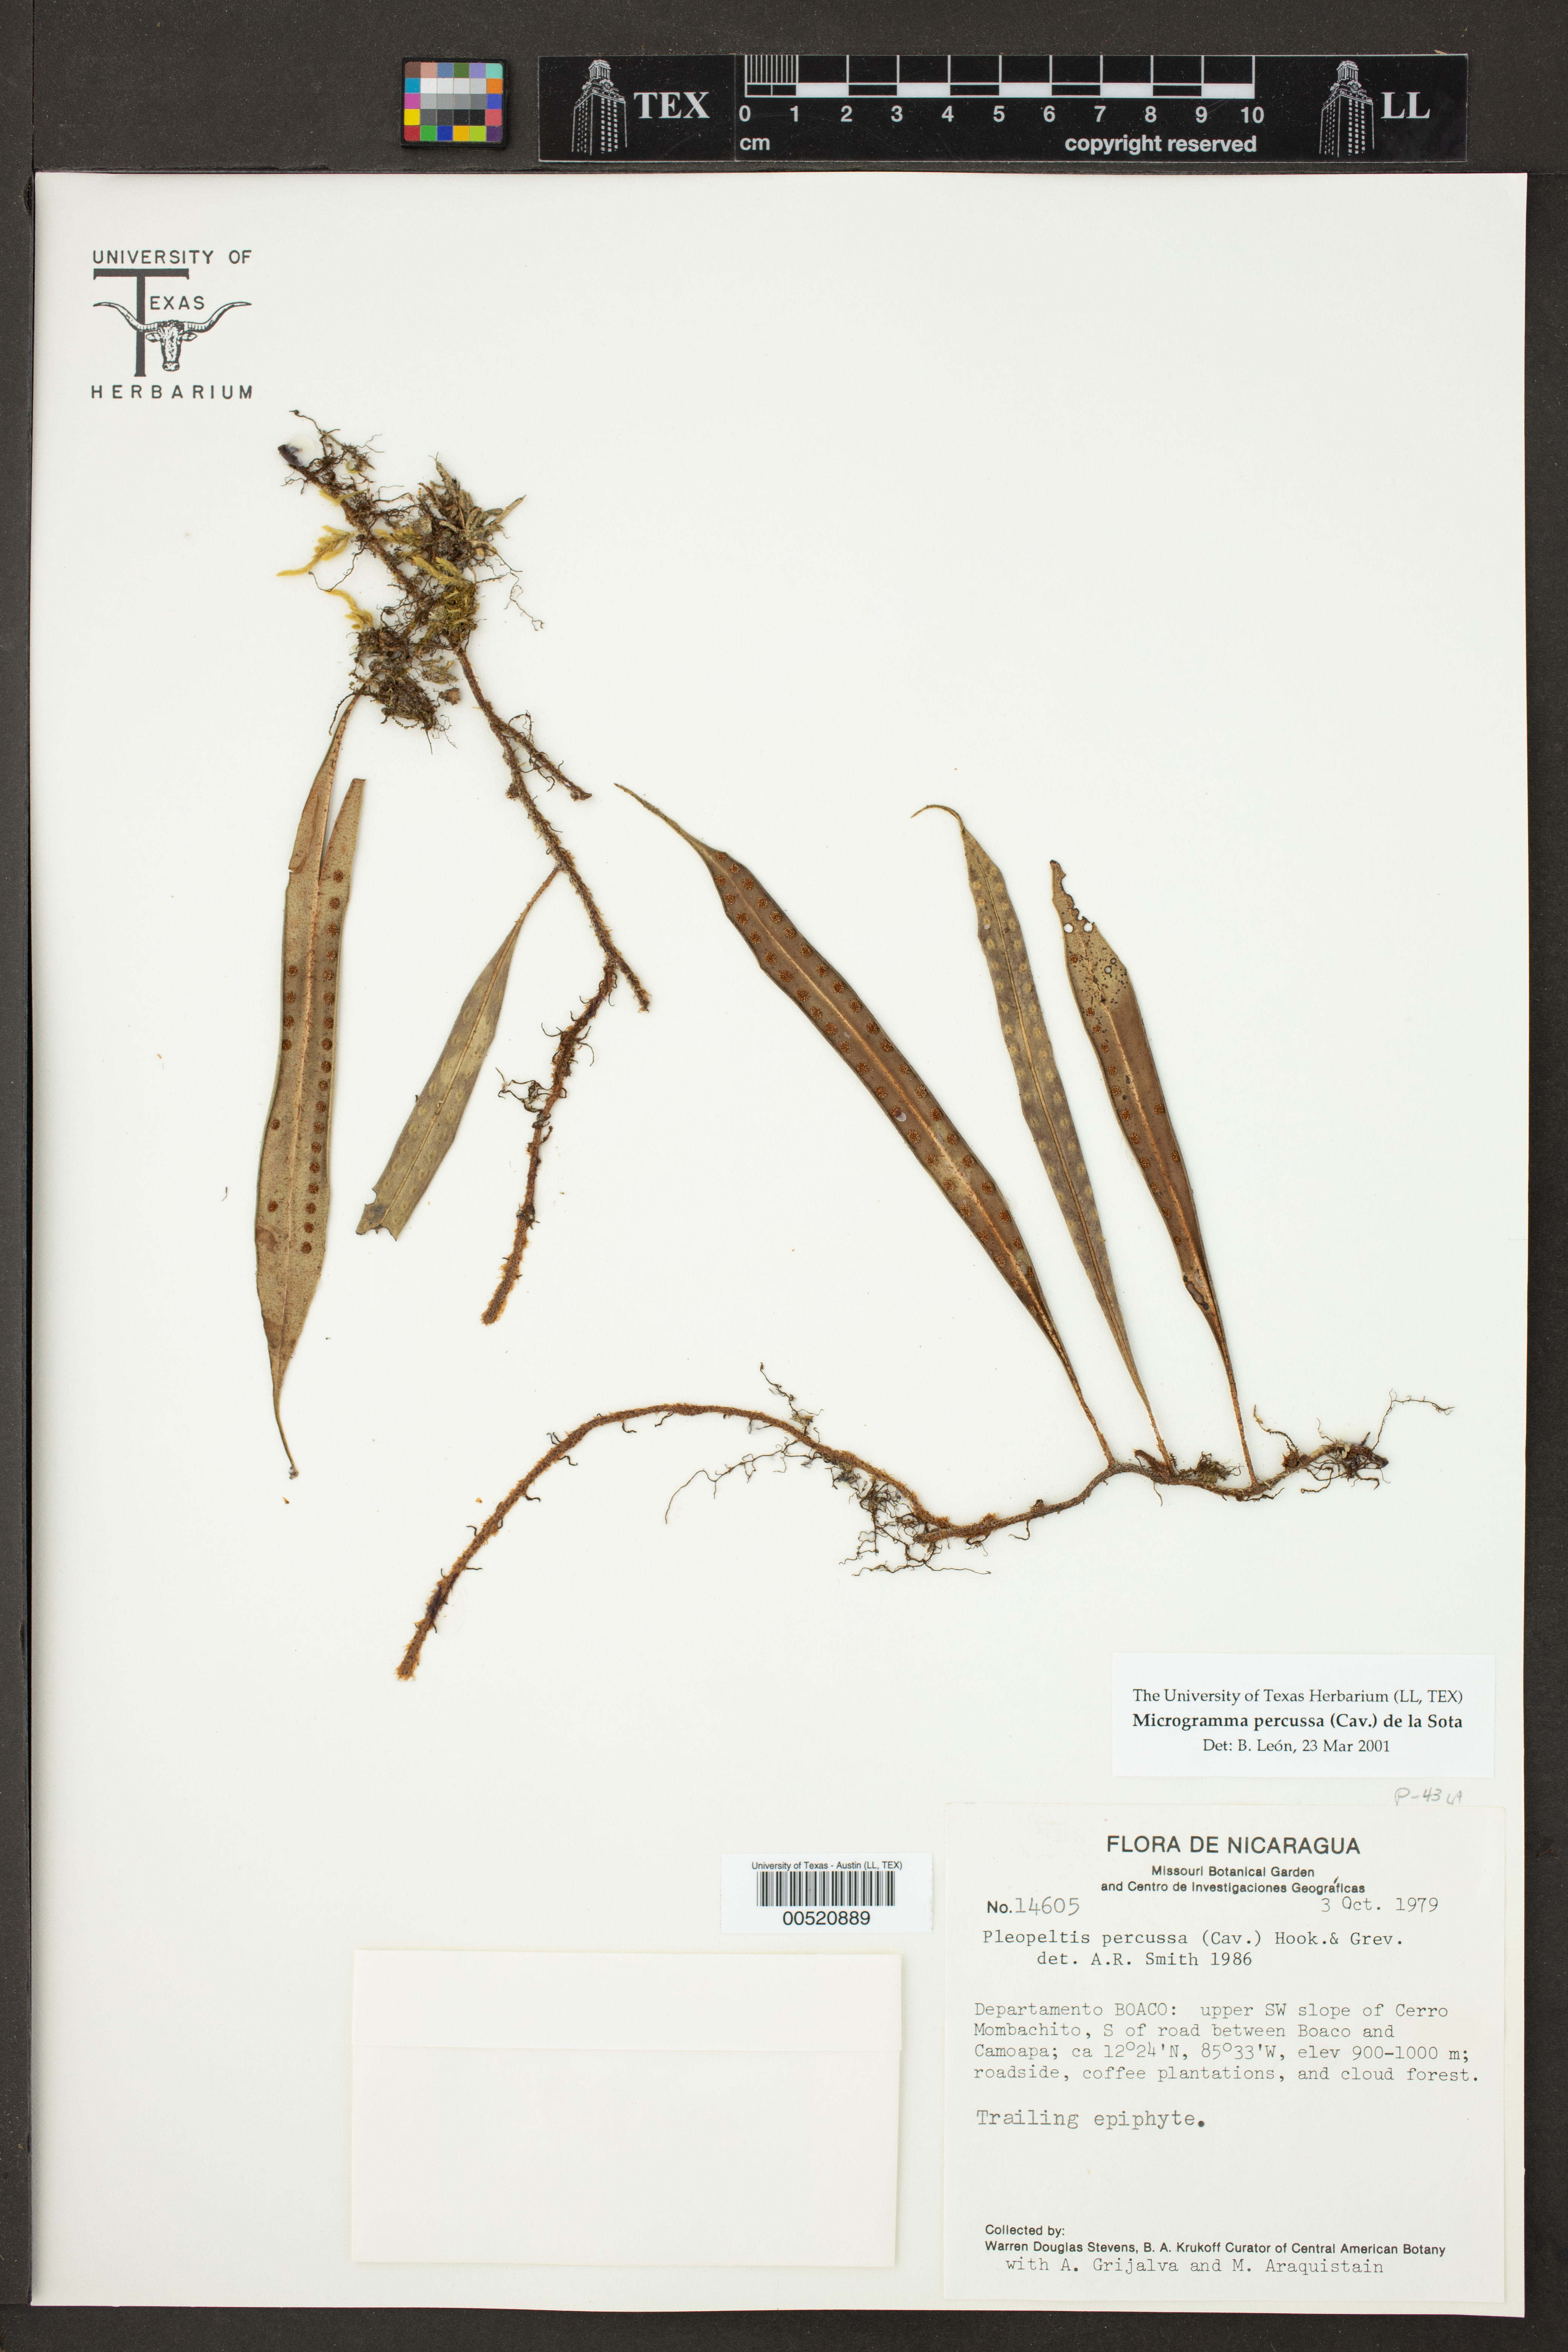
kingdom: Plantae
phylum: Tracheophyta
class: Polypodiopsida
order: Polypodiales
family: Polypodiaceae
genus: Microgramma
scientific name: Microgramma percussa
